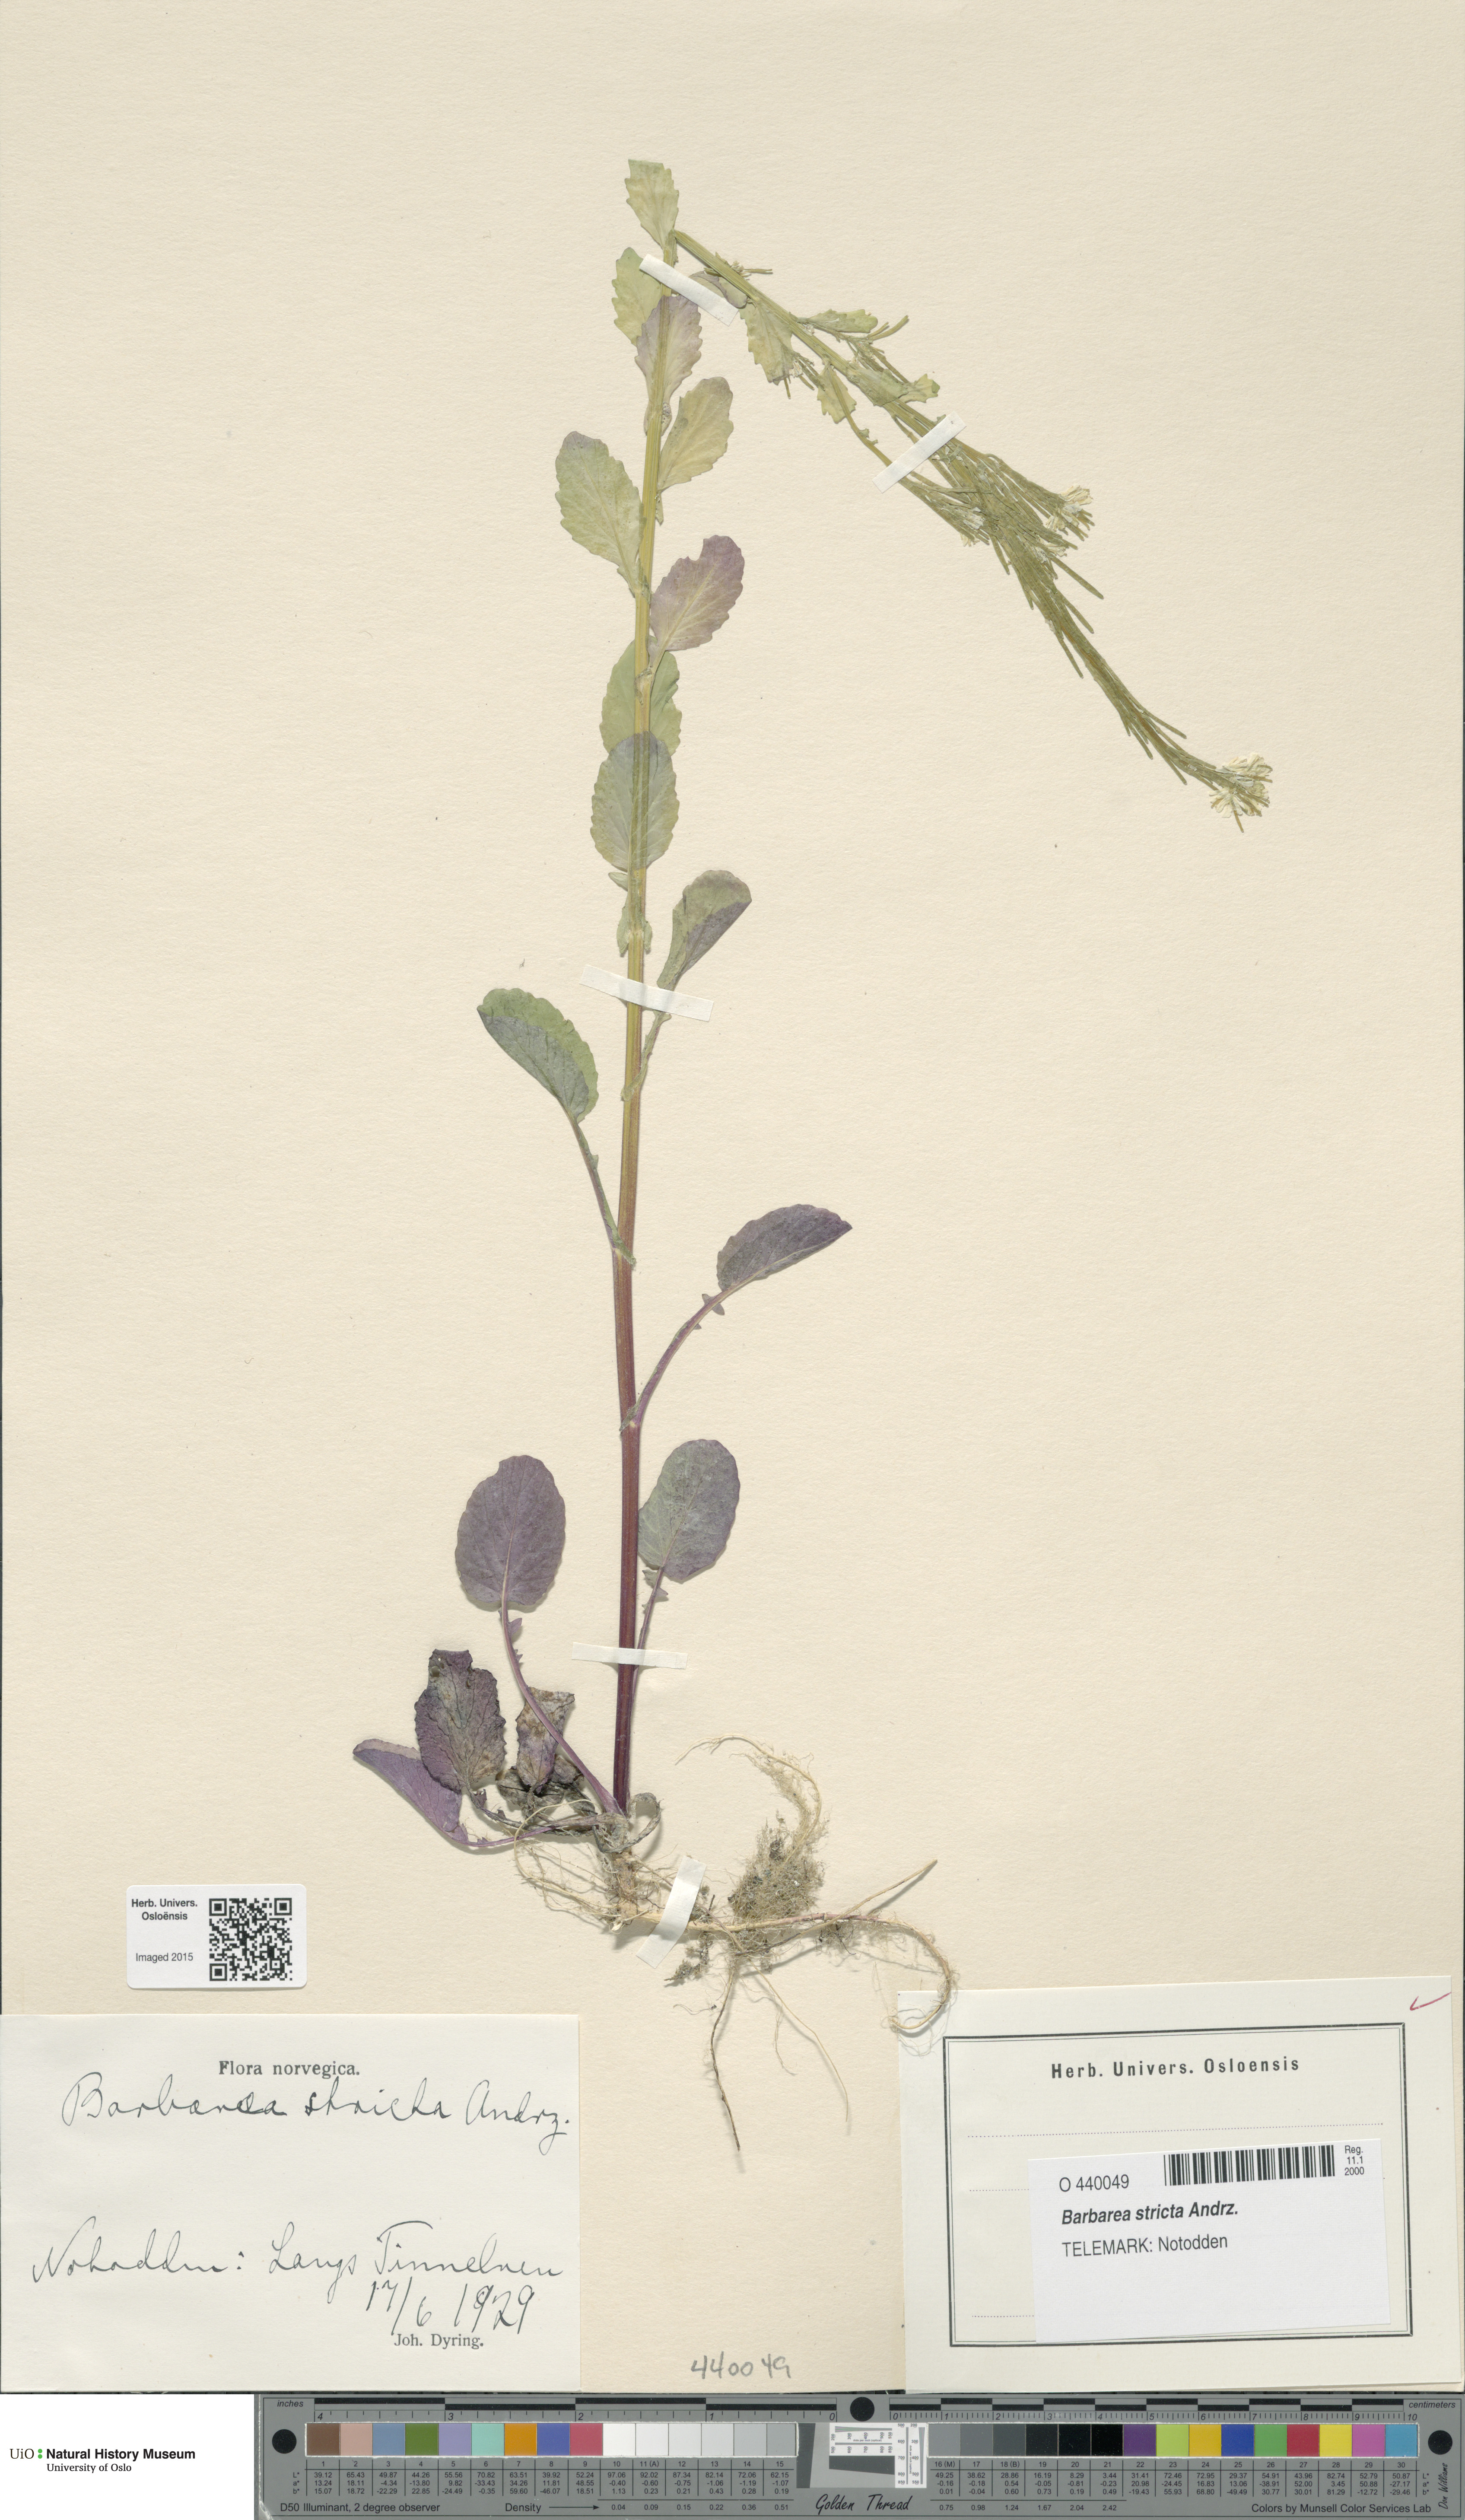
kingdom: Plantae
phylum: Tracheophyta
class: Magnoliopsida
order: Brassicales
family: Brassicaceae
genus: Barbarea
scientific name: Barbarea stricta
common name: Small-flowered winter-cress
